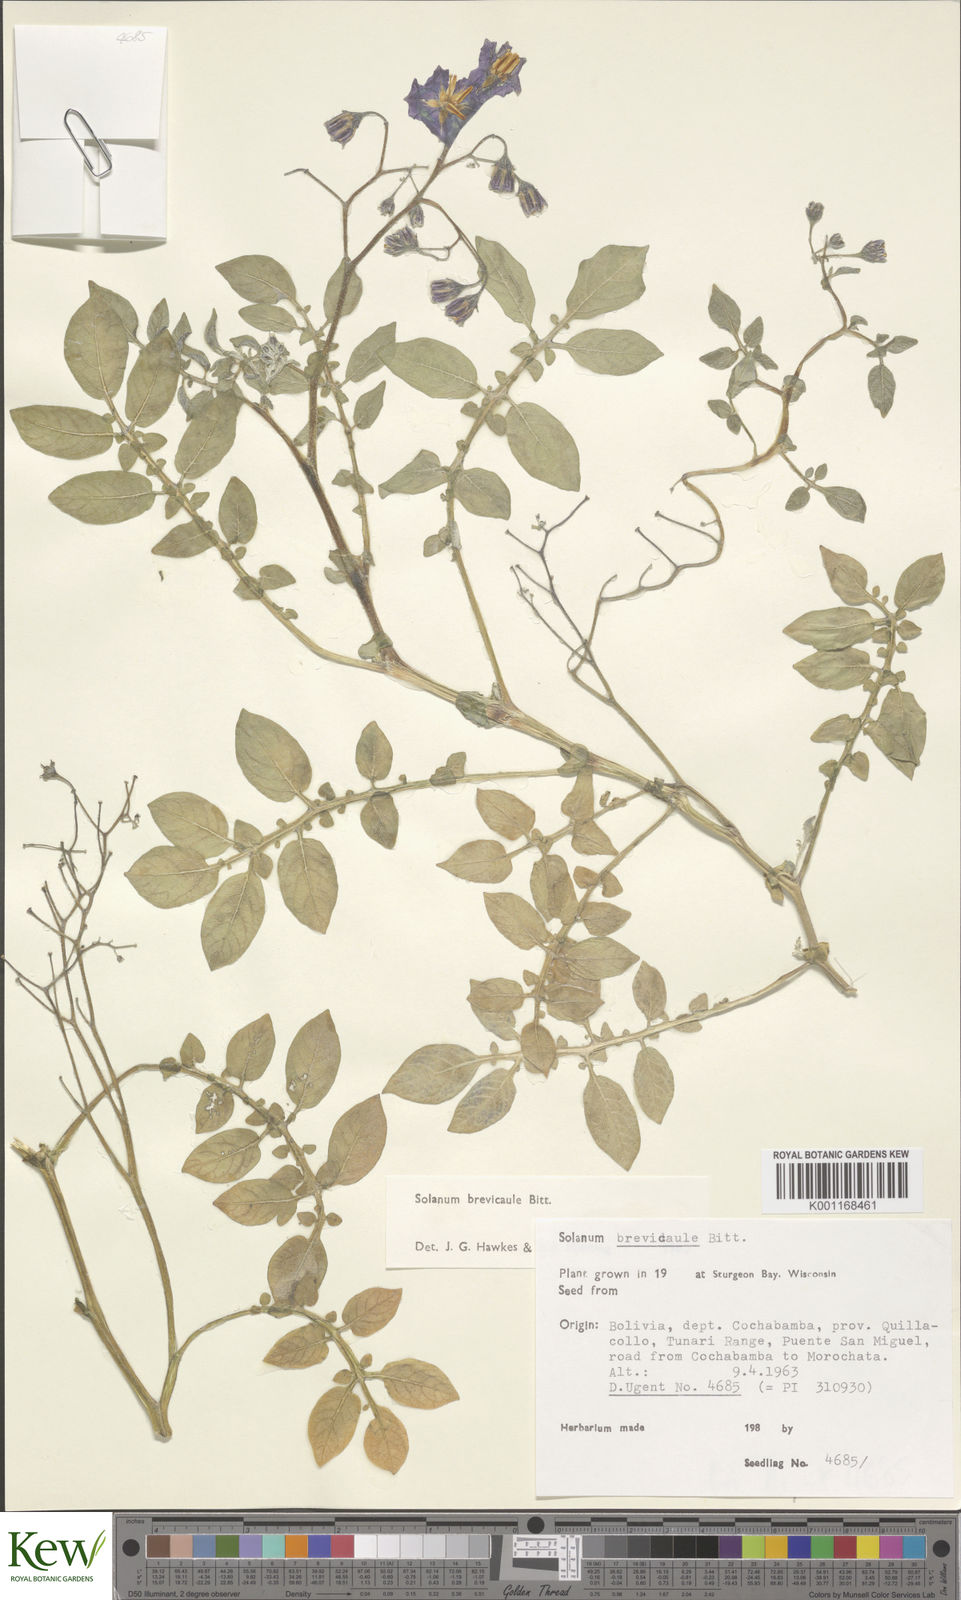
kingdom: Plantae
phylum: Tracheophyta
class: Magnoliopsida
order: Solanales
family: Solanaceae
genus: Solanum
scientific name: Solanum brevicaule
